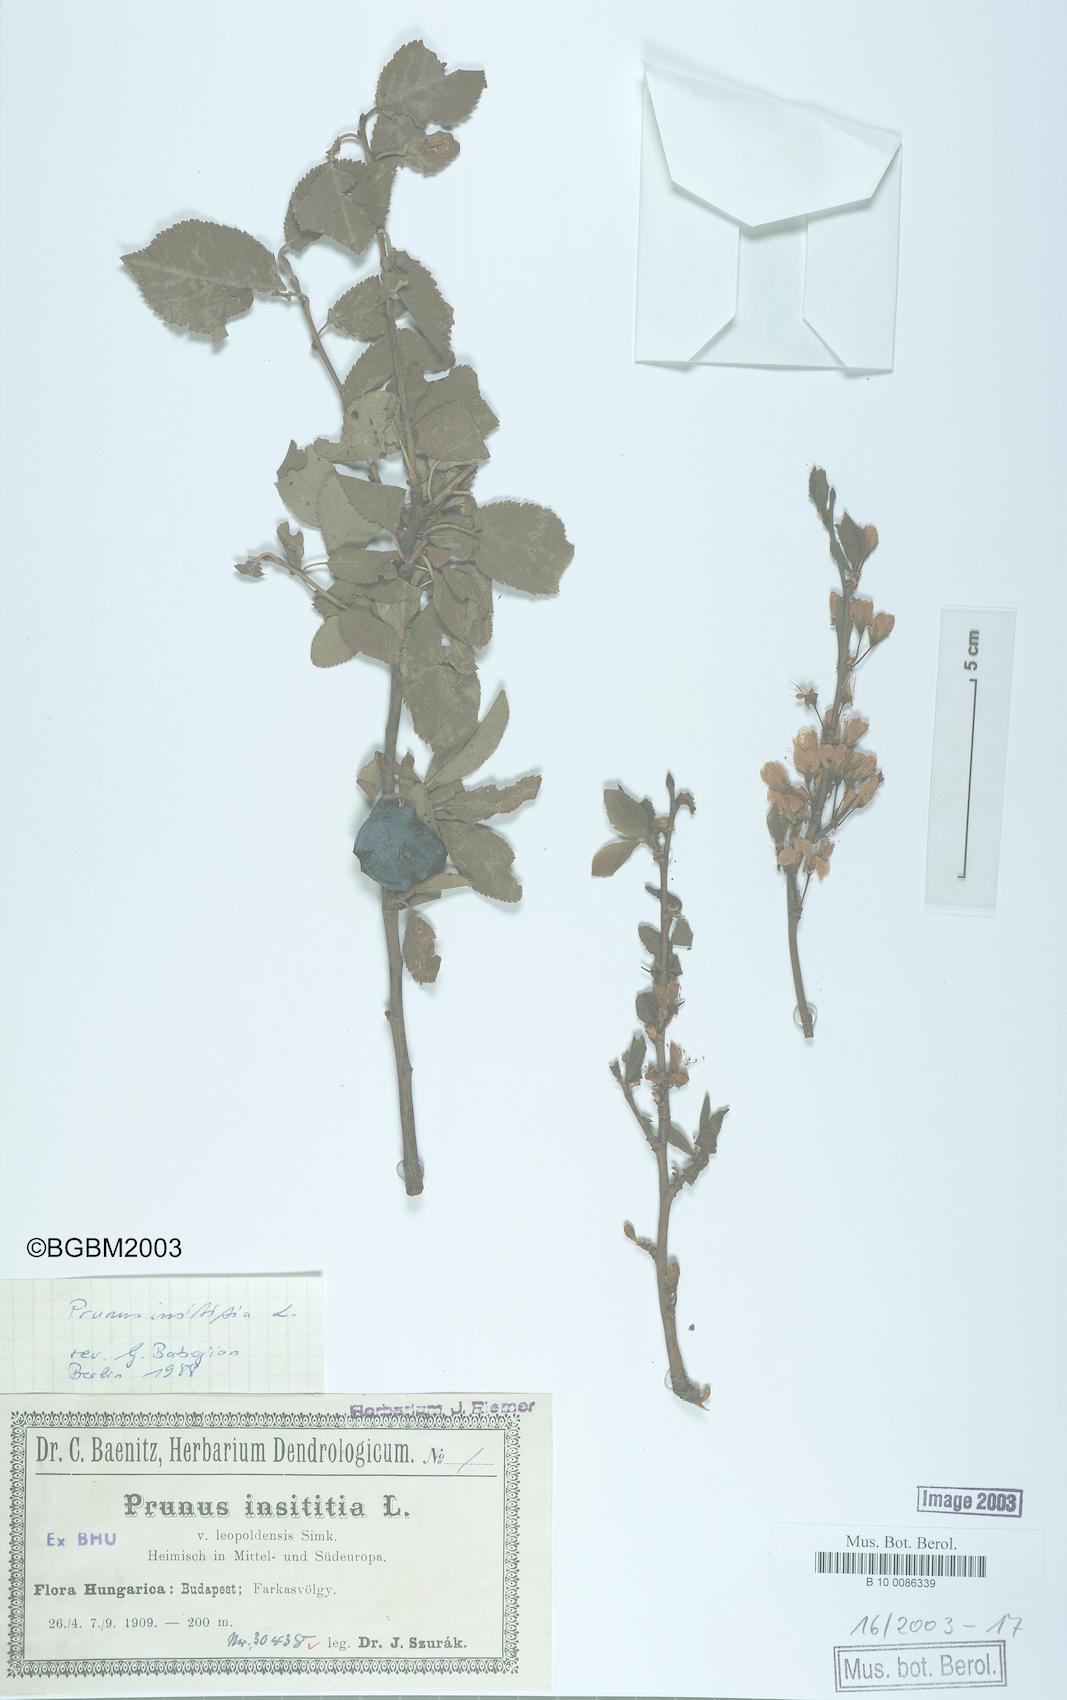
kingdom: Plantae
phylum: Tracheophyta
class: Magnoliopsida
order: Rosales
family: Rosaceae
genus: Prunus
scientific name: Prunus
